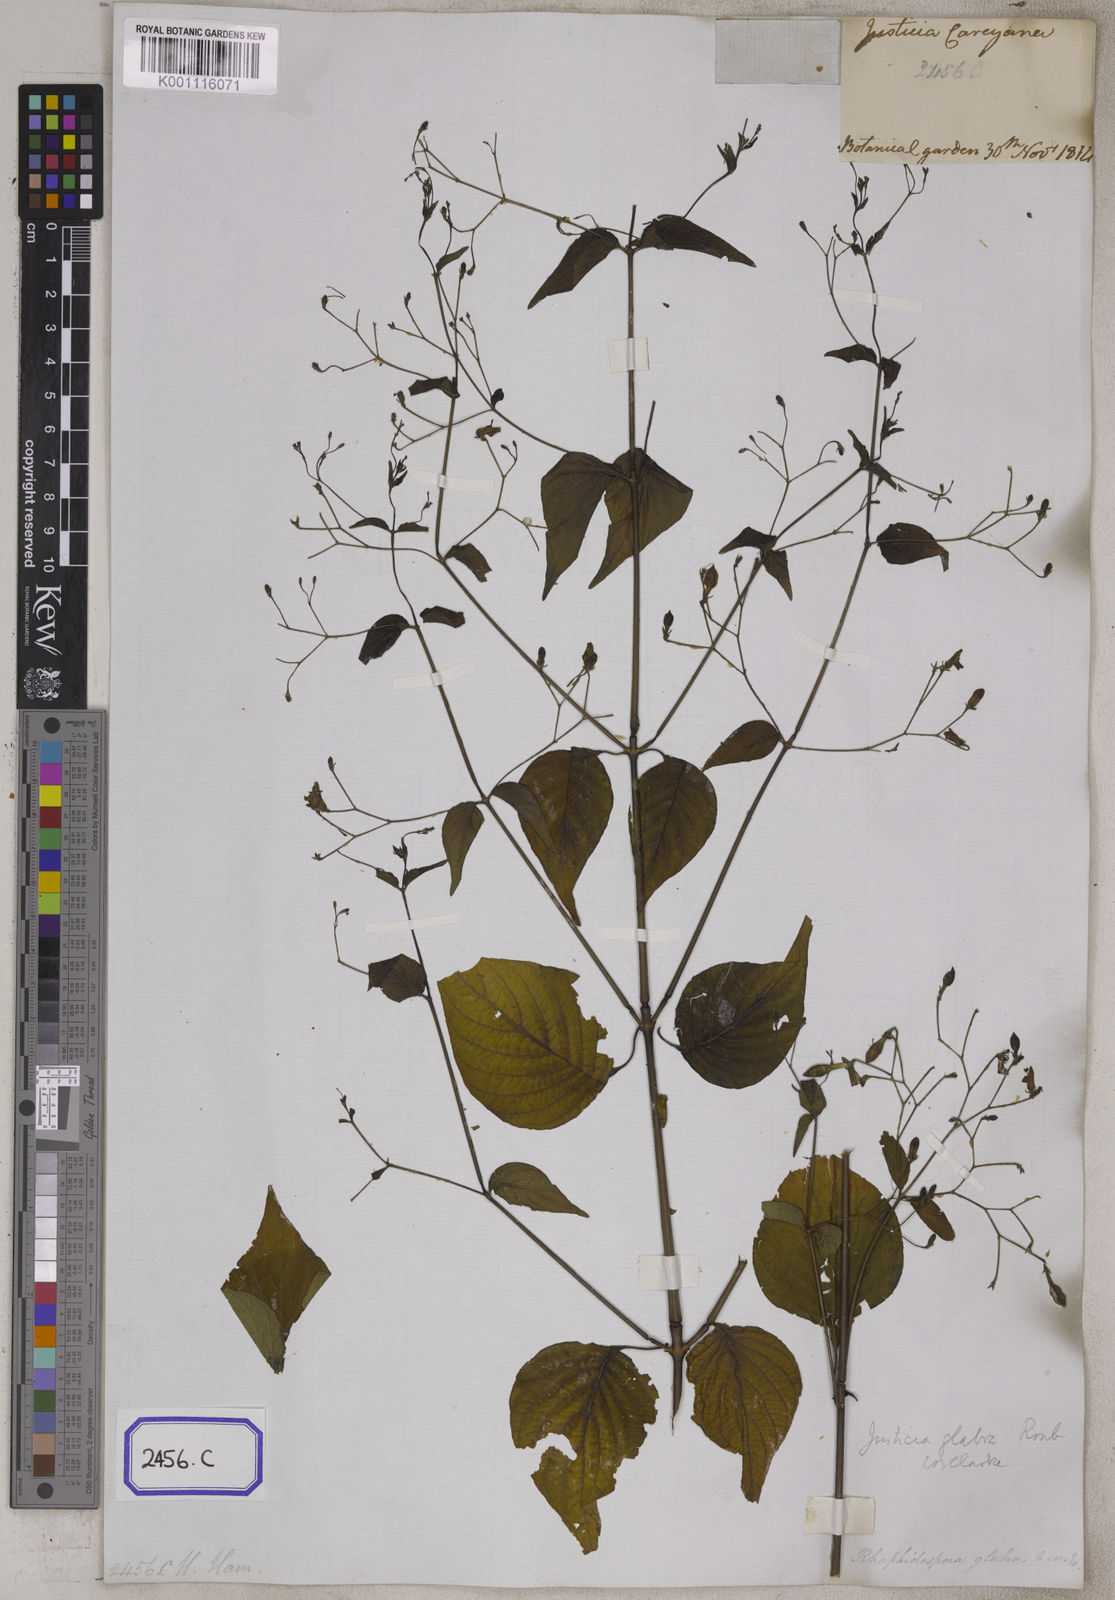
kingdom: Plantae
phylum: Tracheophyta
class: Magnoliopsida
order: Lamiales
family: Acanthaceae
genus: Justicia
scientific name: Justicia careyana
